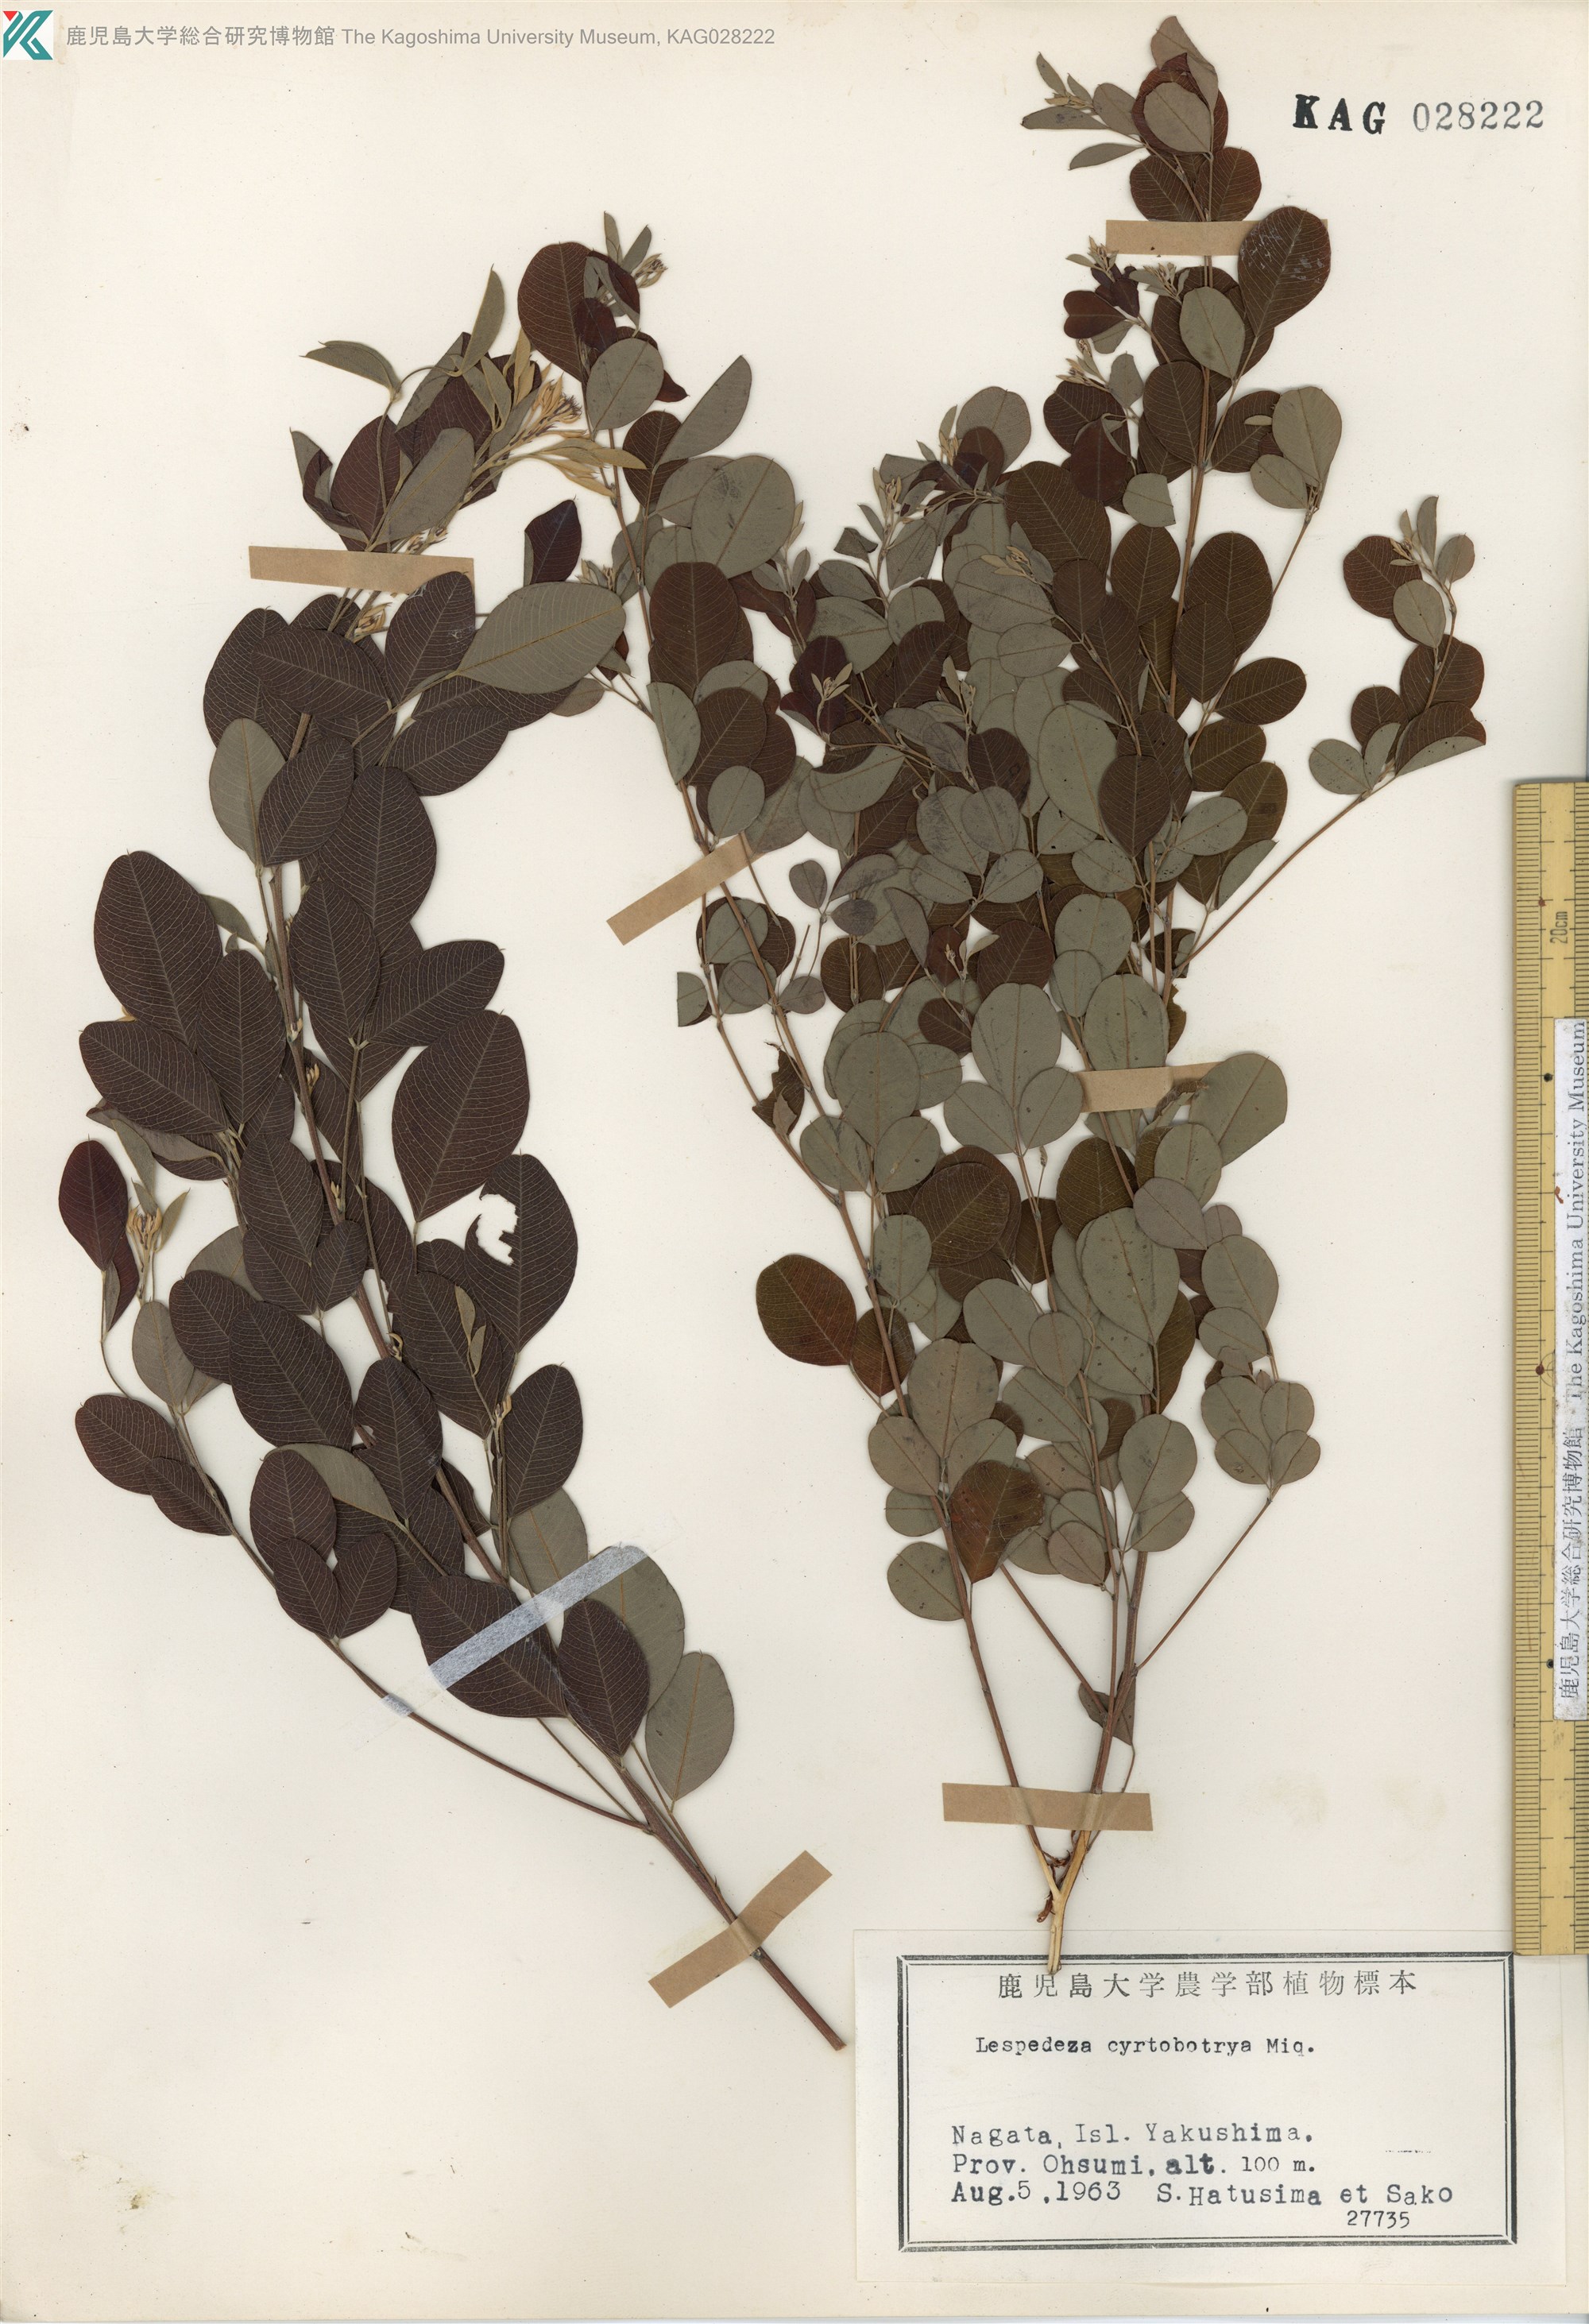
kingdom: Plantae
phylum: Tracheophyta
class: Magnoliopsida
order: Fabales
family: Fabaceae
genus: Lespedeza
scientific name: Lespedeza cyrtobotrya
